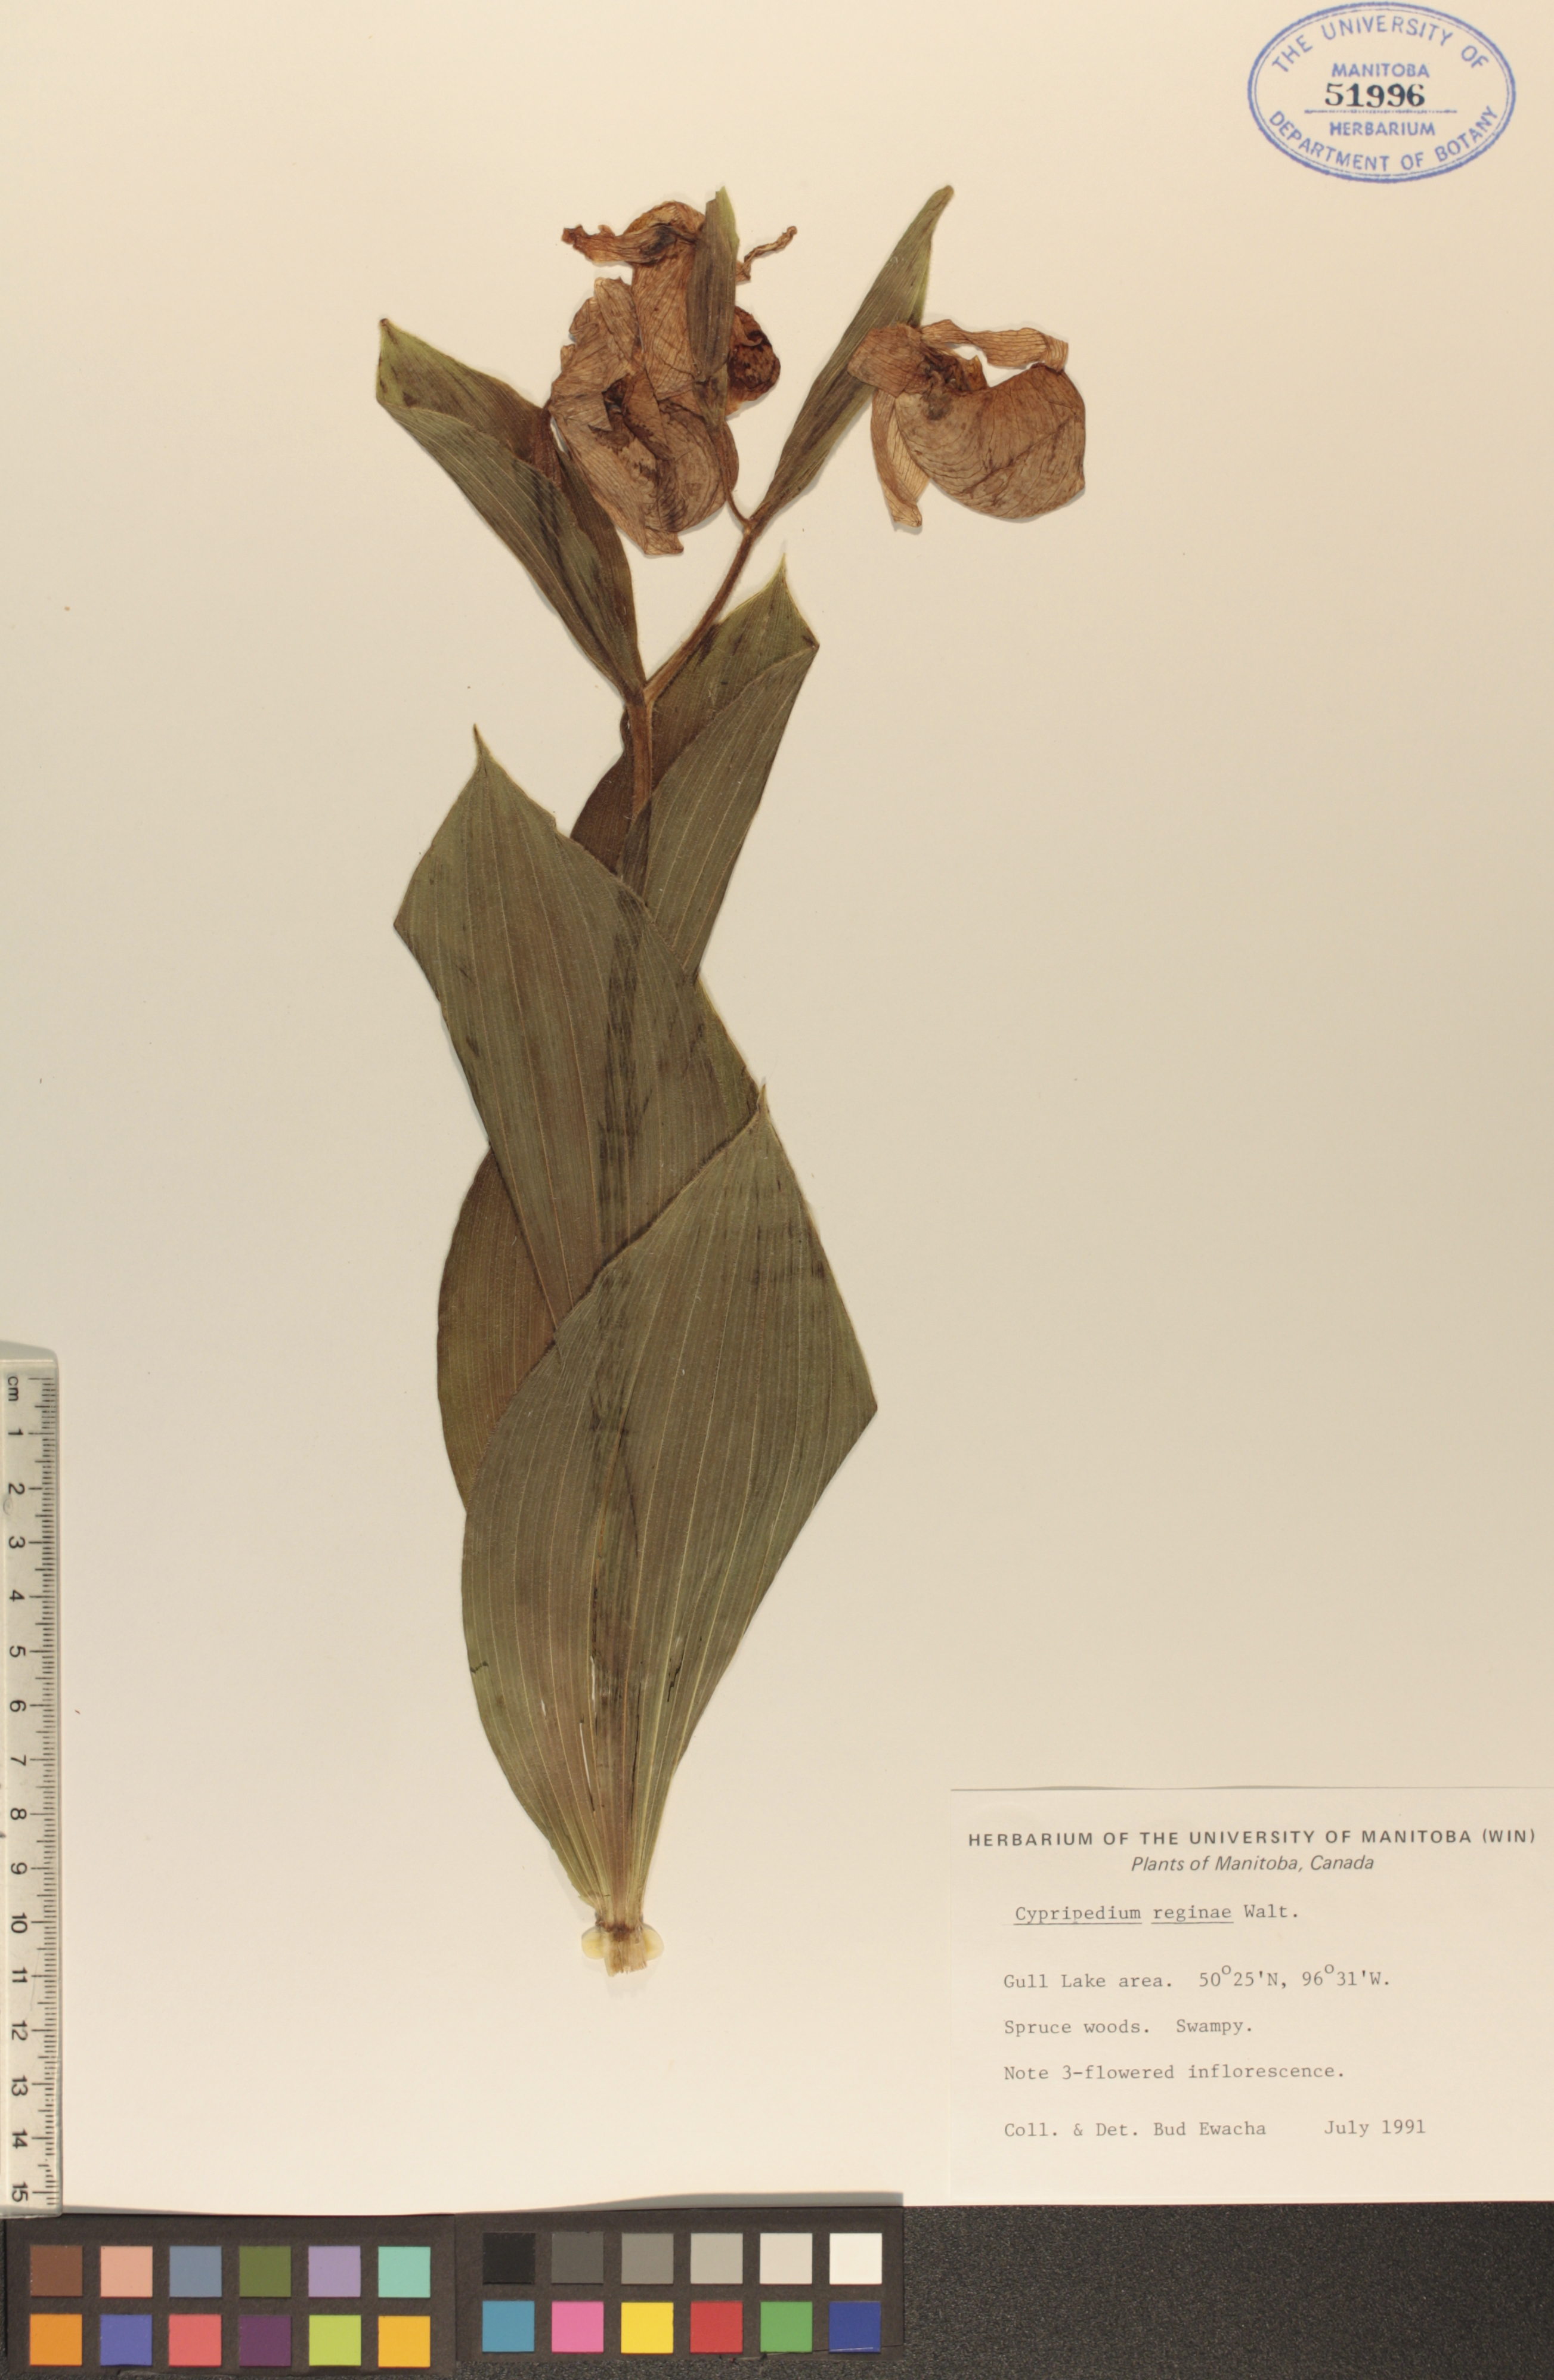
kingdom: Plantae
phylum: Tracheophyta
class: Liliopsida
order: Asparagales
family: Orchidaceae
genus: Cypripedium
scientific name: Cypripedium reginae
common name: Queen lady's-slipper
